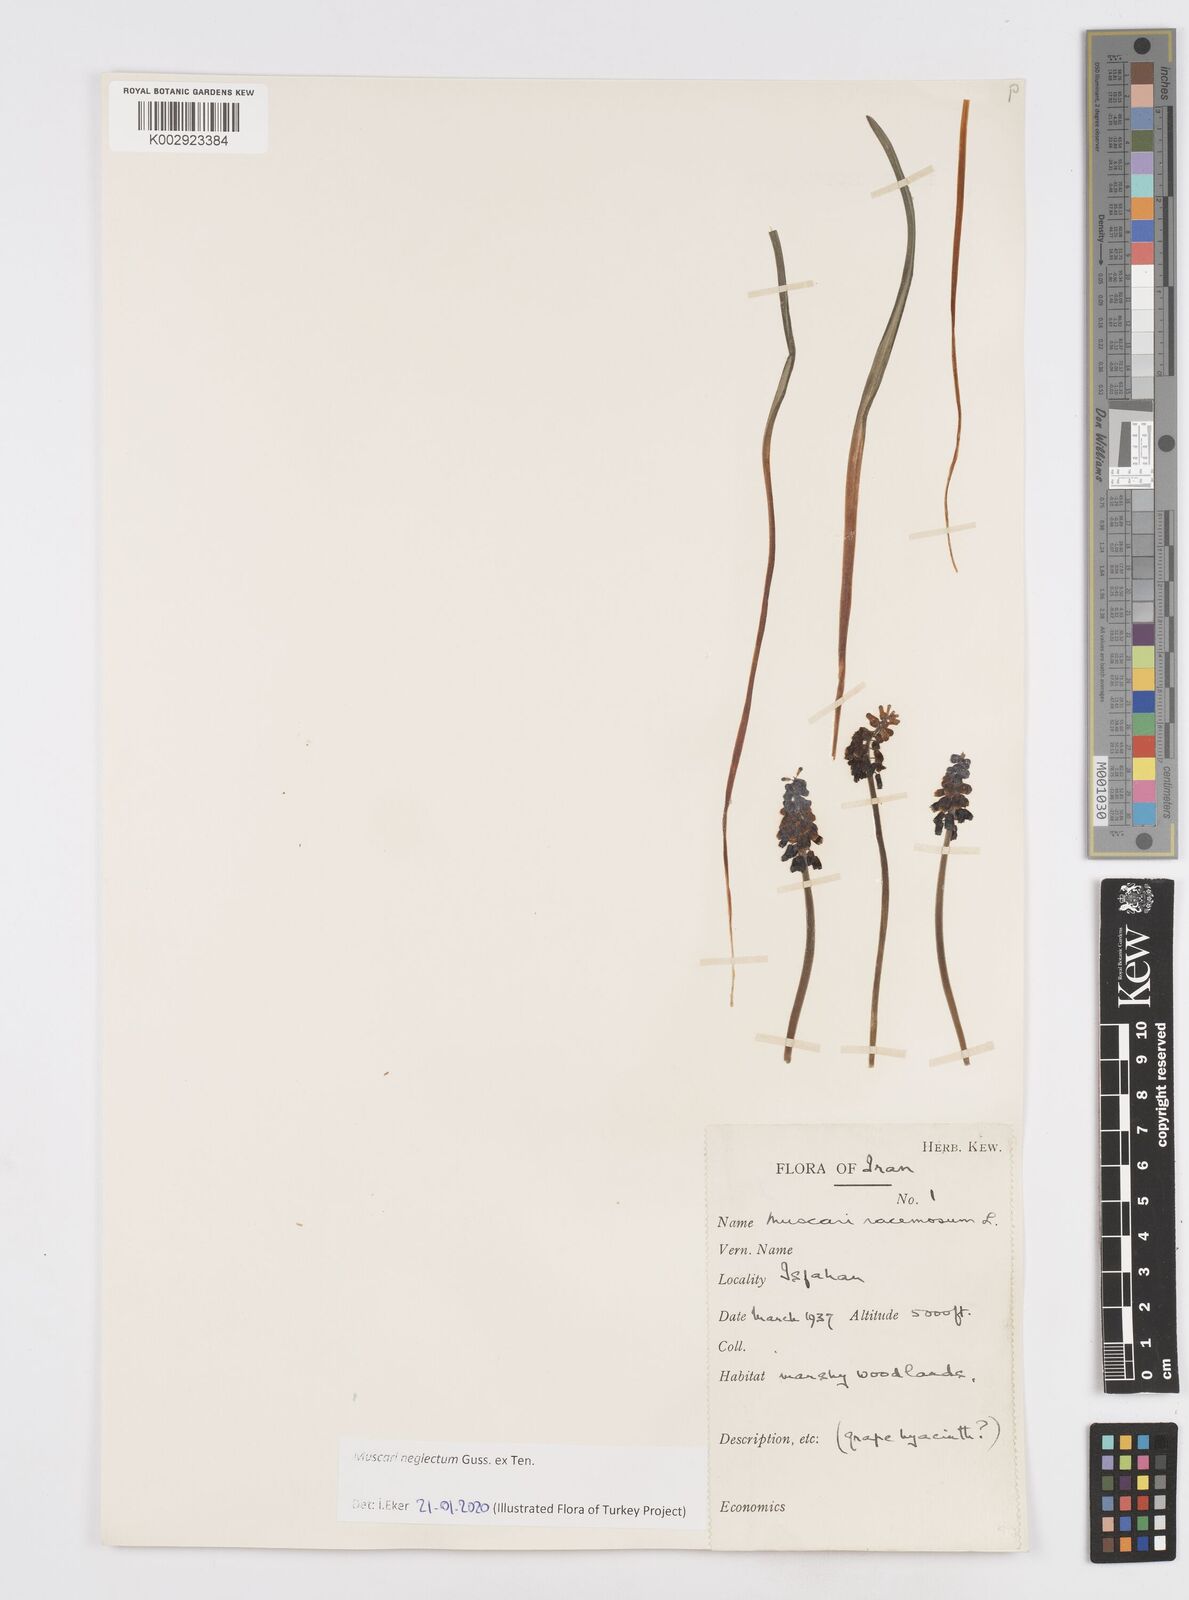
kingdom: Plantae
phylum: Tracheophyta
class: Liliopsida
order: Asparagales
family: Asparagaceae
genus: Muscari
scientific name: Muscari neglectum
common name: Grape-hyacinth
